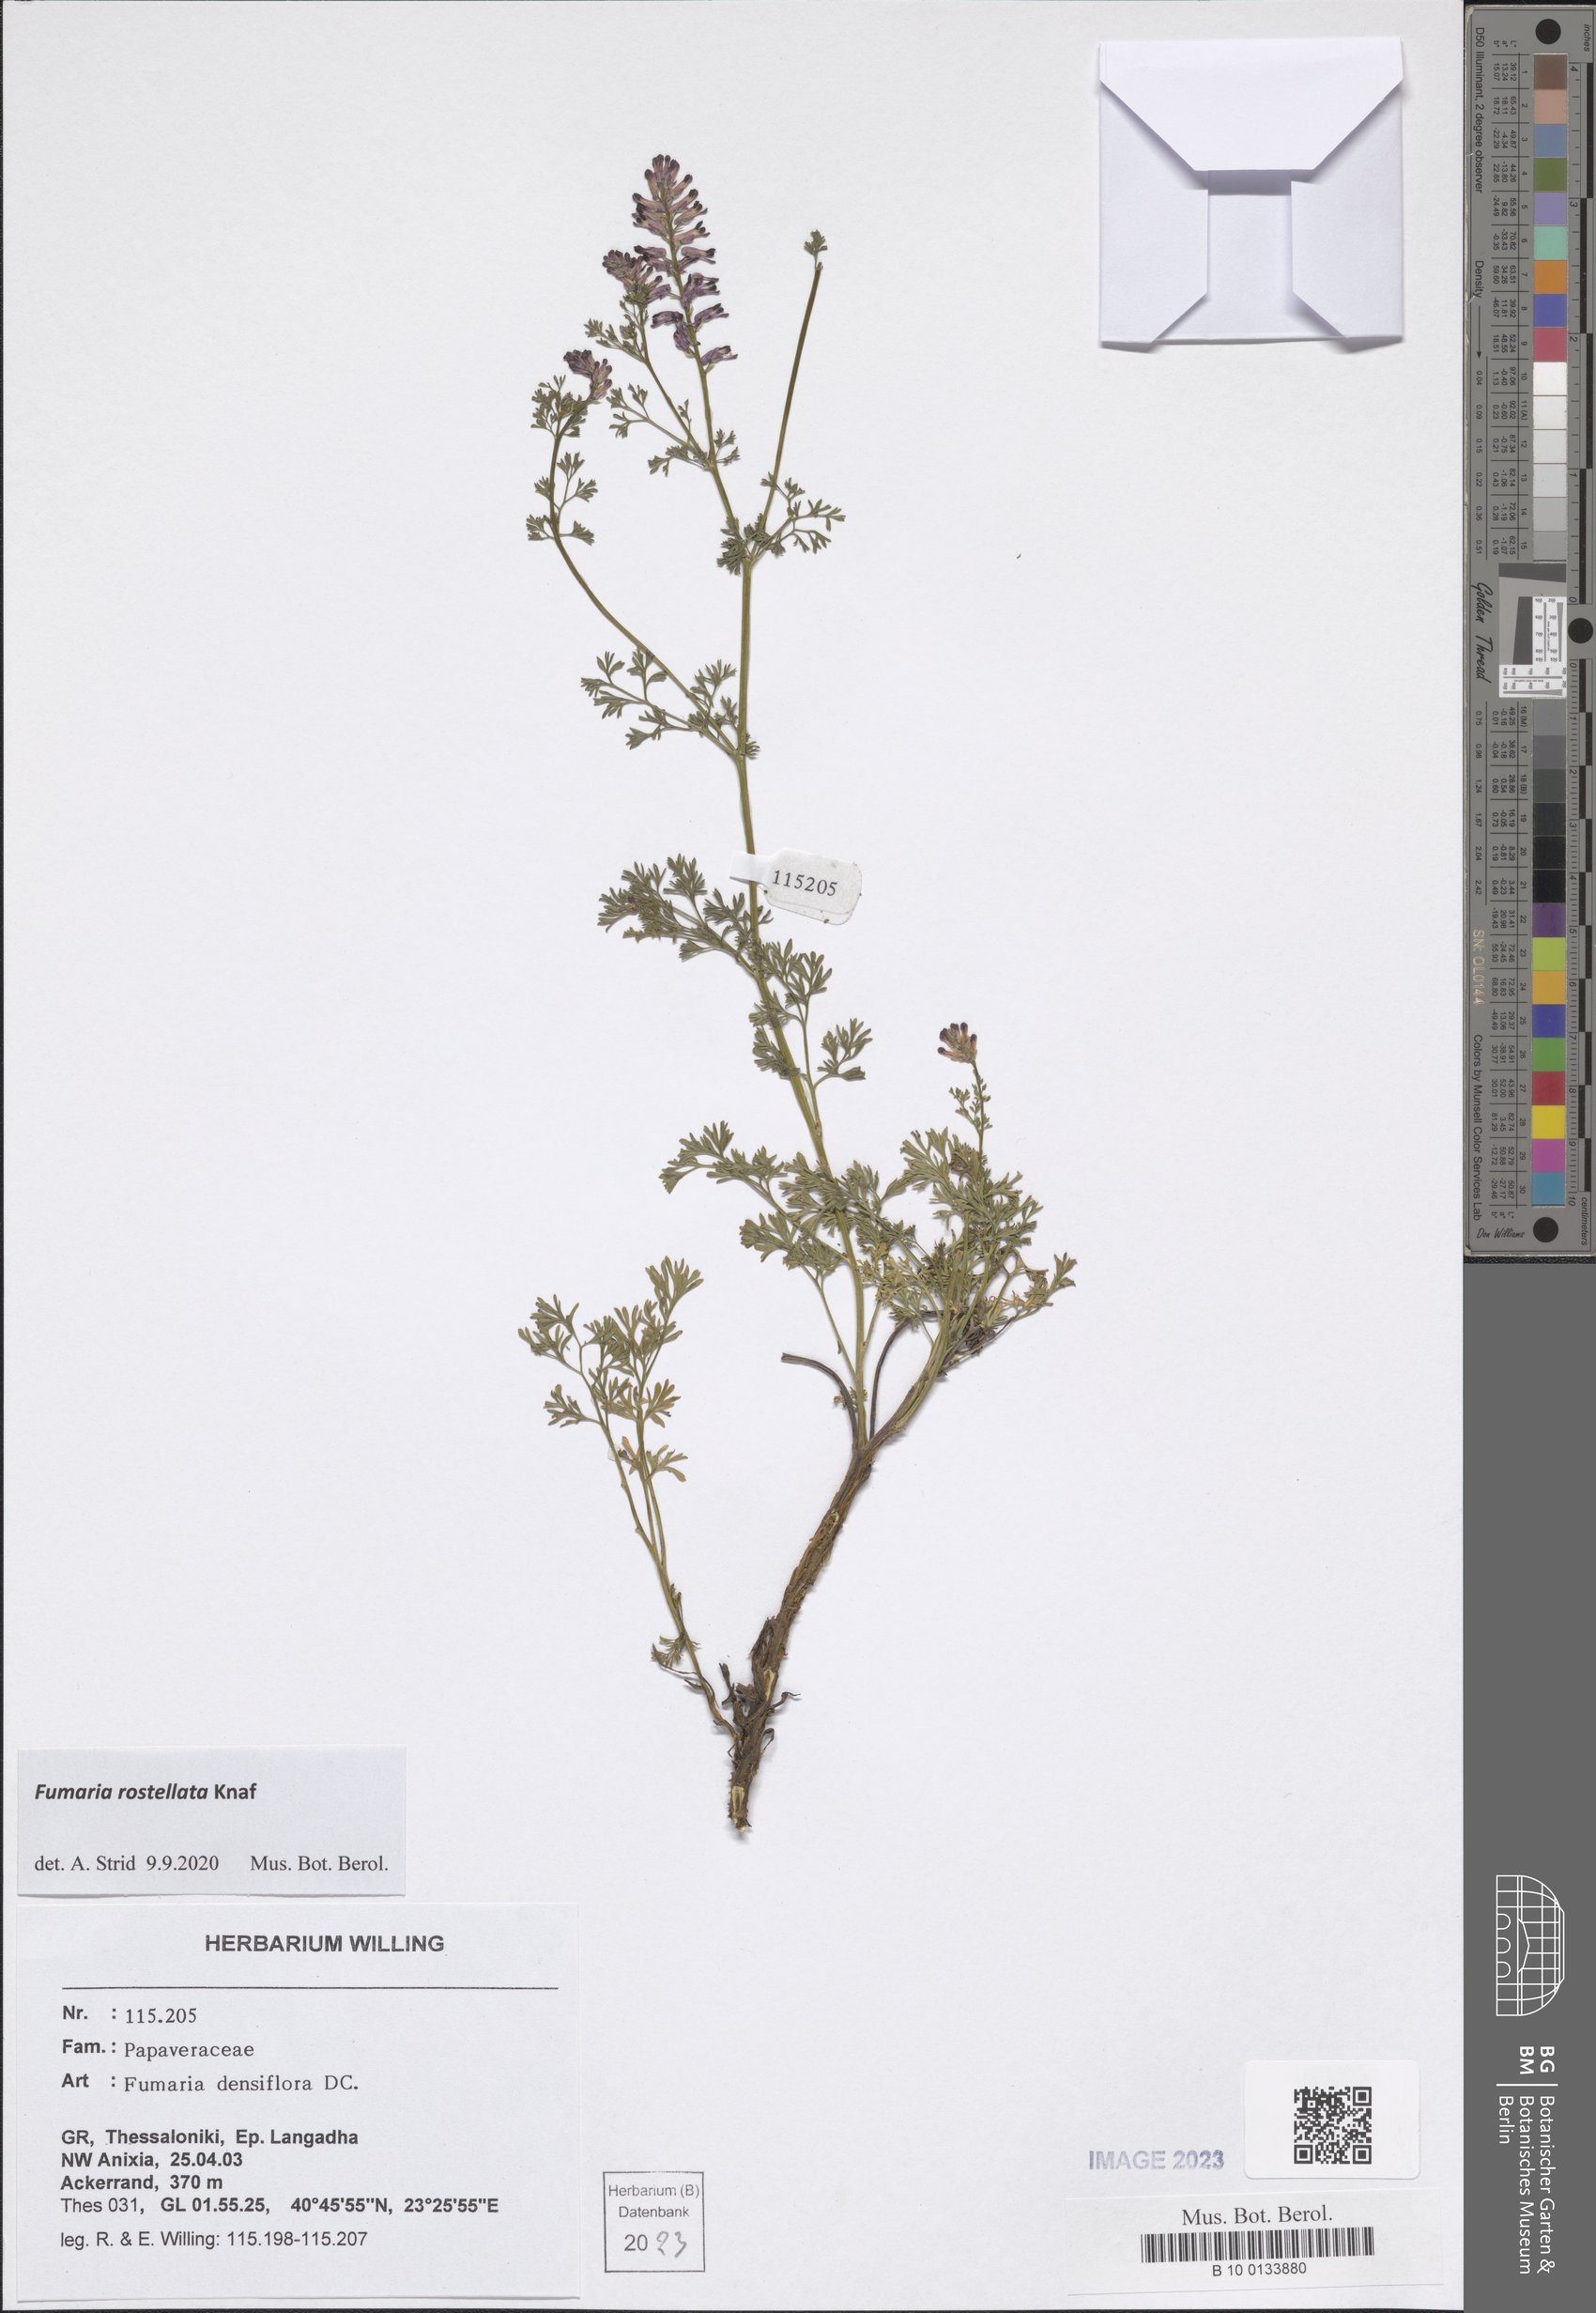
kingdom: Plantae
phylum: Tracheophyta
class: Magnoliopsida
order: Ranunculales
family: Papaveraceae
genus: Fumaria
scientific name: Fumaria rostellata
